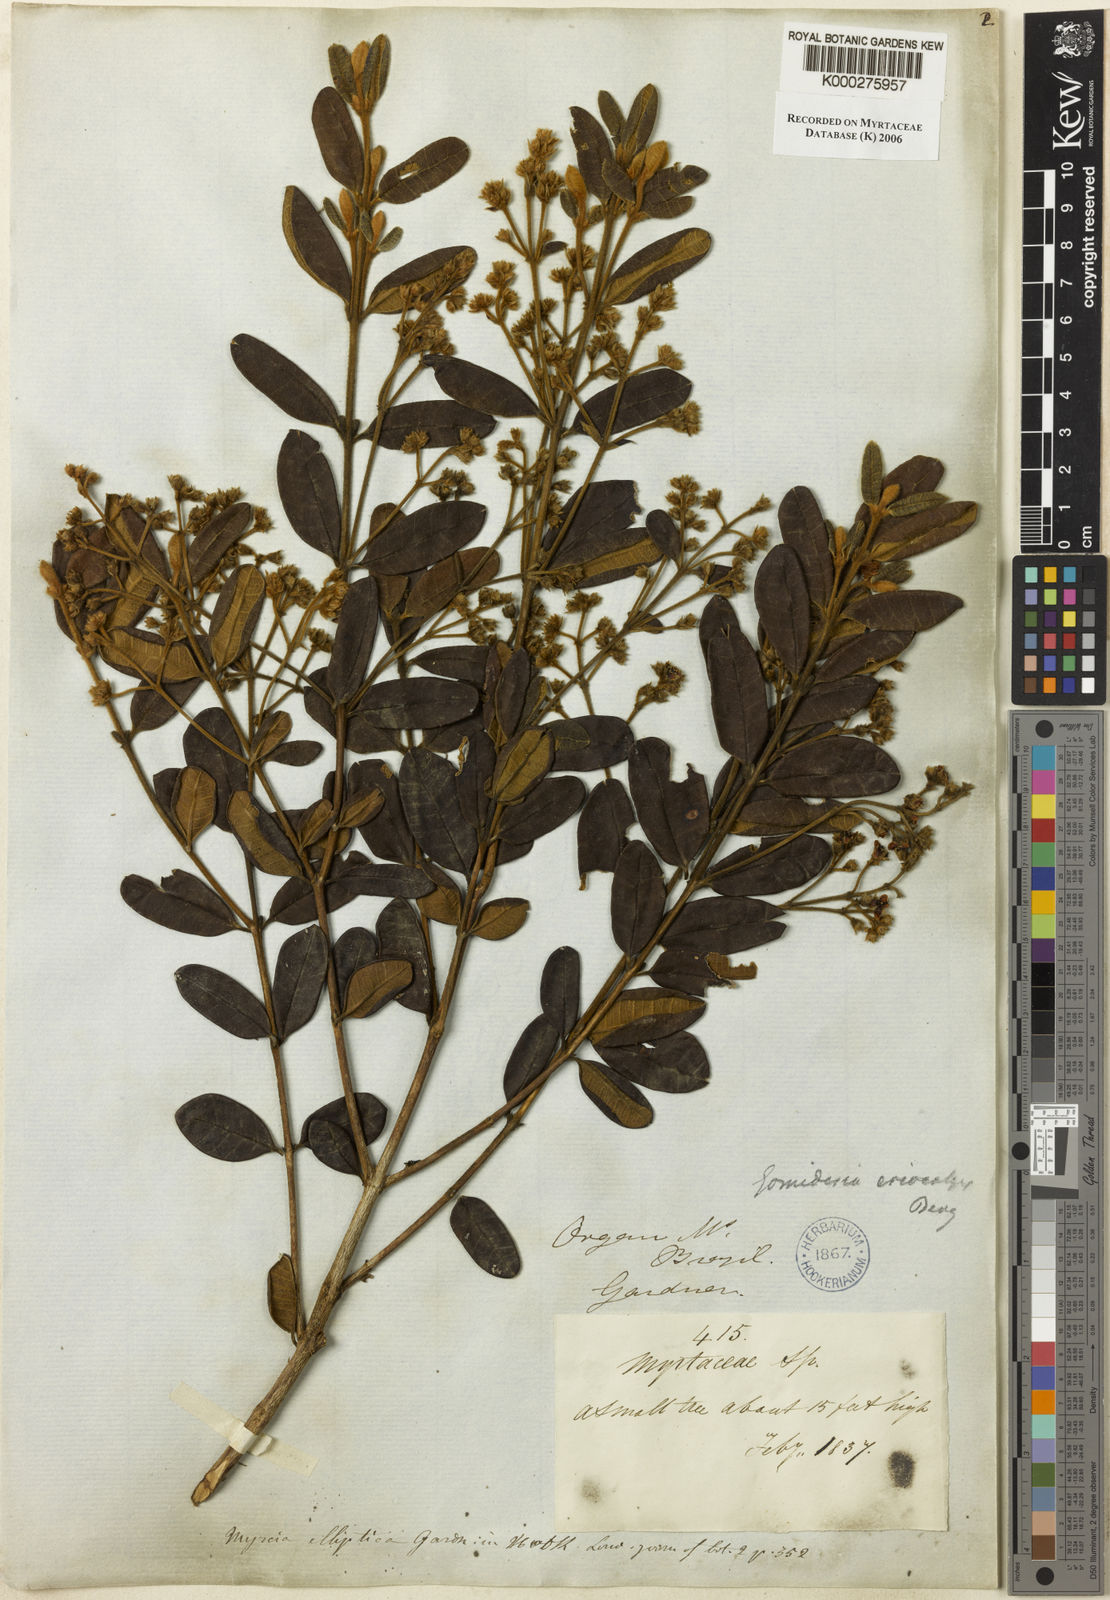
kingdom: Plantae
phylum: Tracheophyta
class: Magnoliopsida
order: Myrtales
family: Myrtaceae
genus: Myrcia
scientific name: Myrcia eriocalyx
